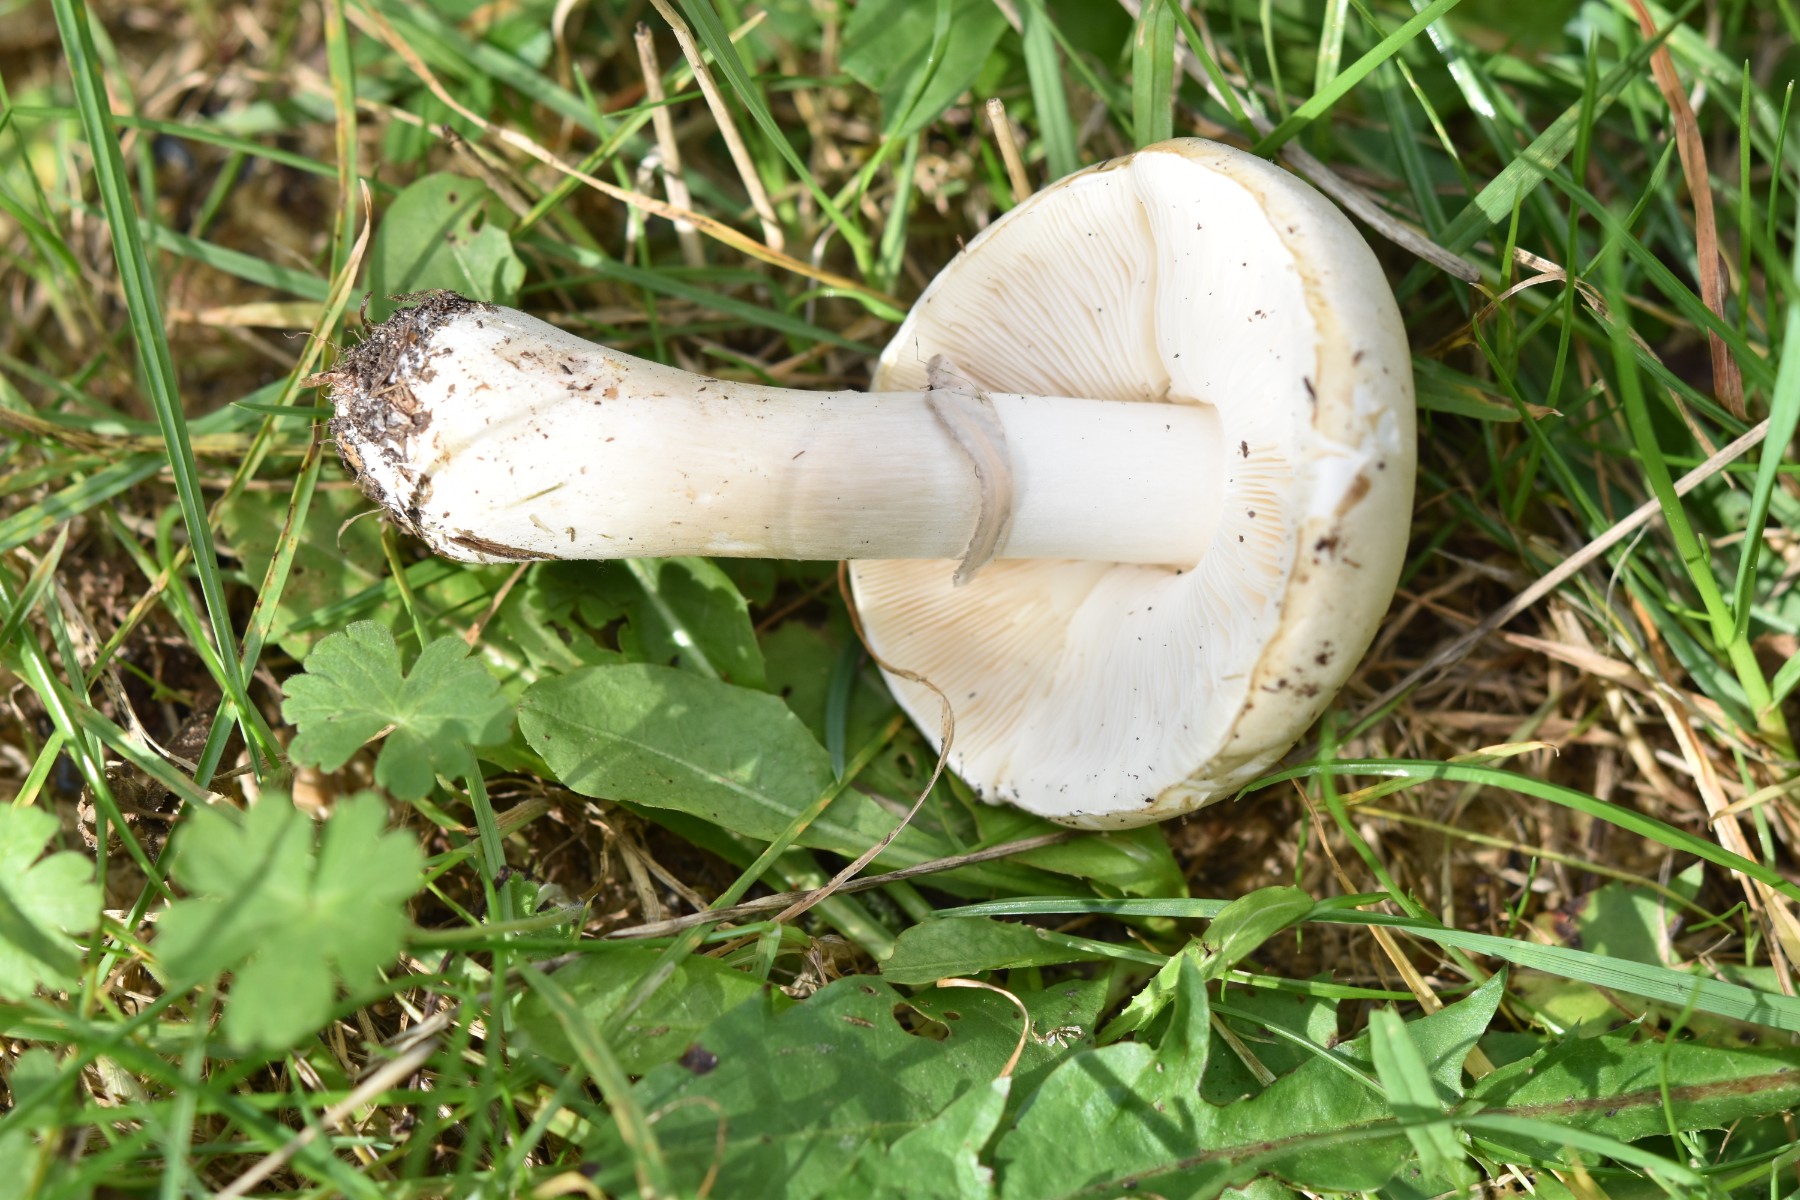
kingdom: Fungi
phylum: Basidiomycota
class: Agaricomycetes
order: Agaricales
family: Agaricaceae
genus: Leucoagaricus
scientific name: Leucoagaricus leucothites
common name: rosabladet silkehat
